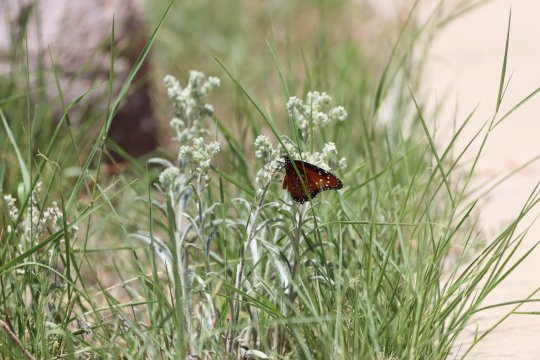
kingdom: Animalia
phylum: Arthropoda
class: Insecta
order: Lepidoptera
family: Nymphalidae
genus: Danaus
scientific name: Danaus gilippus
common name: Queen
